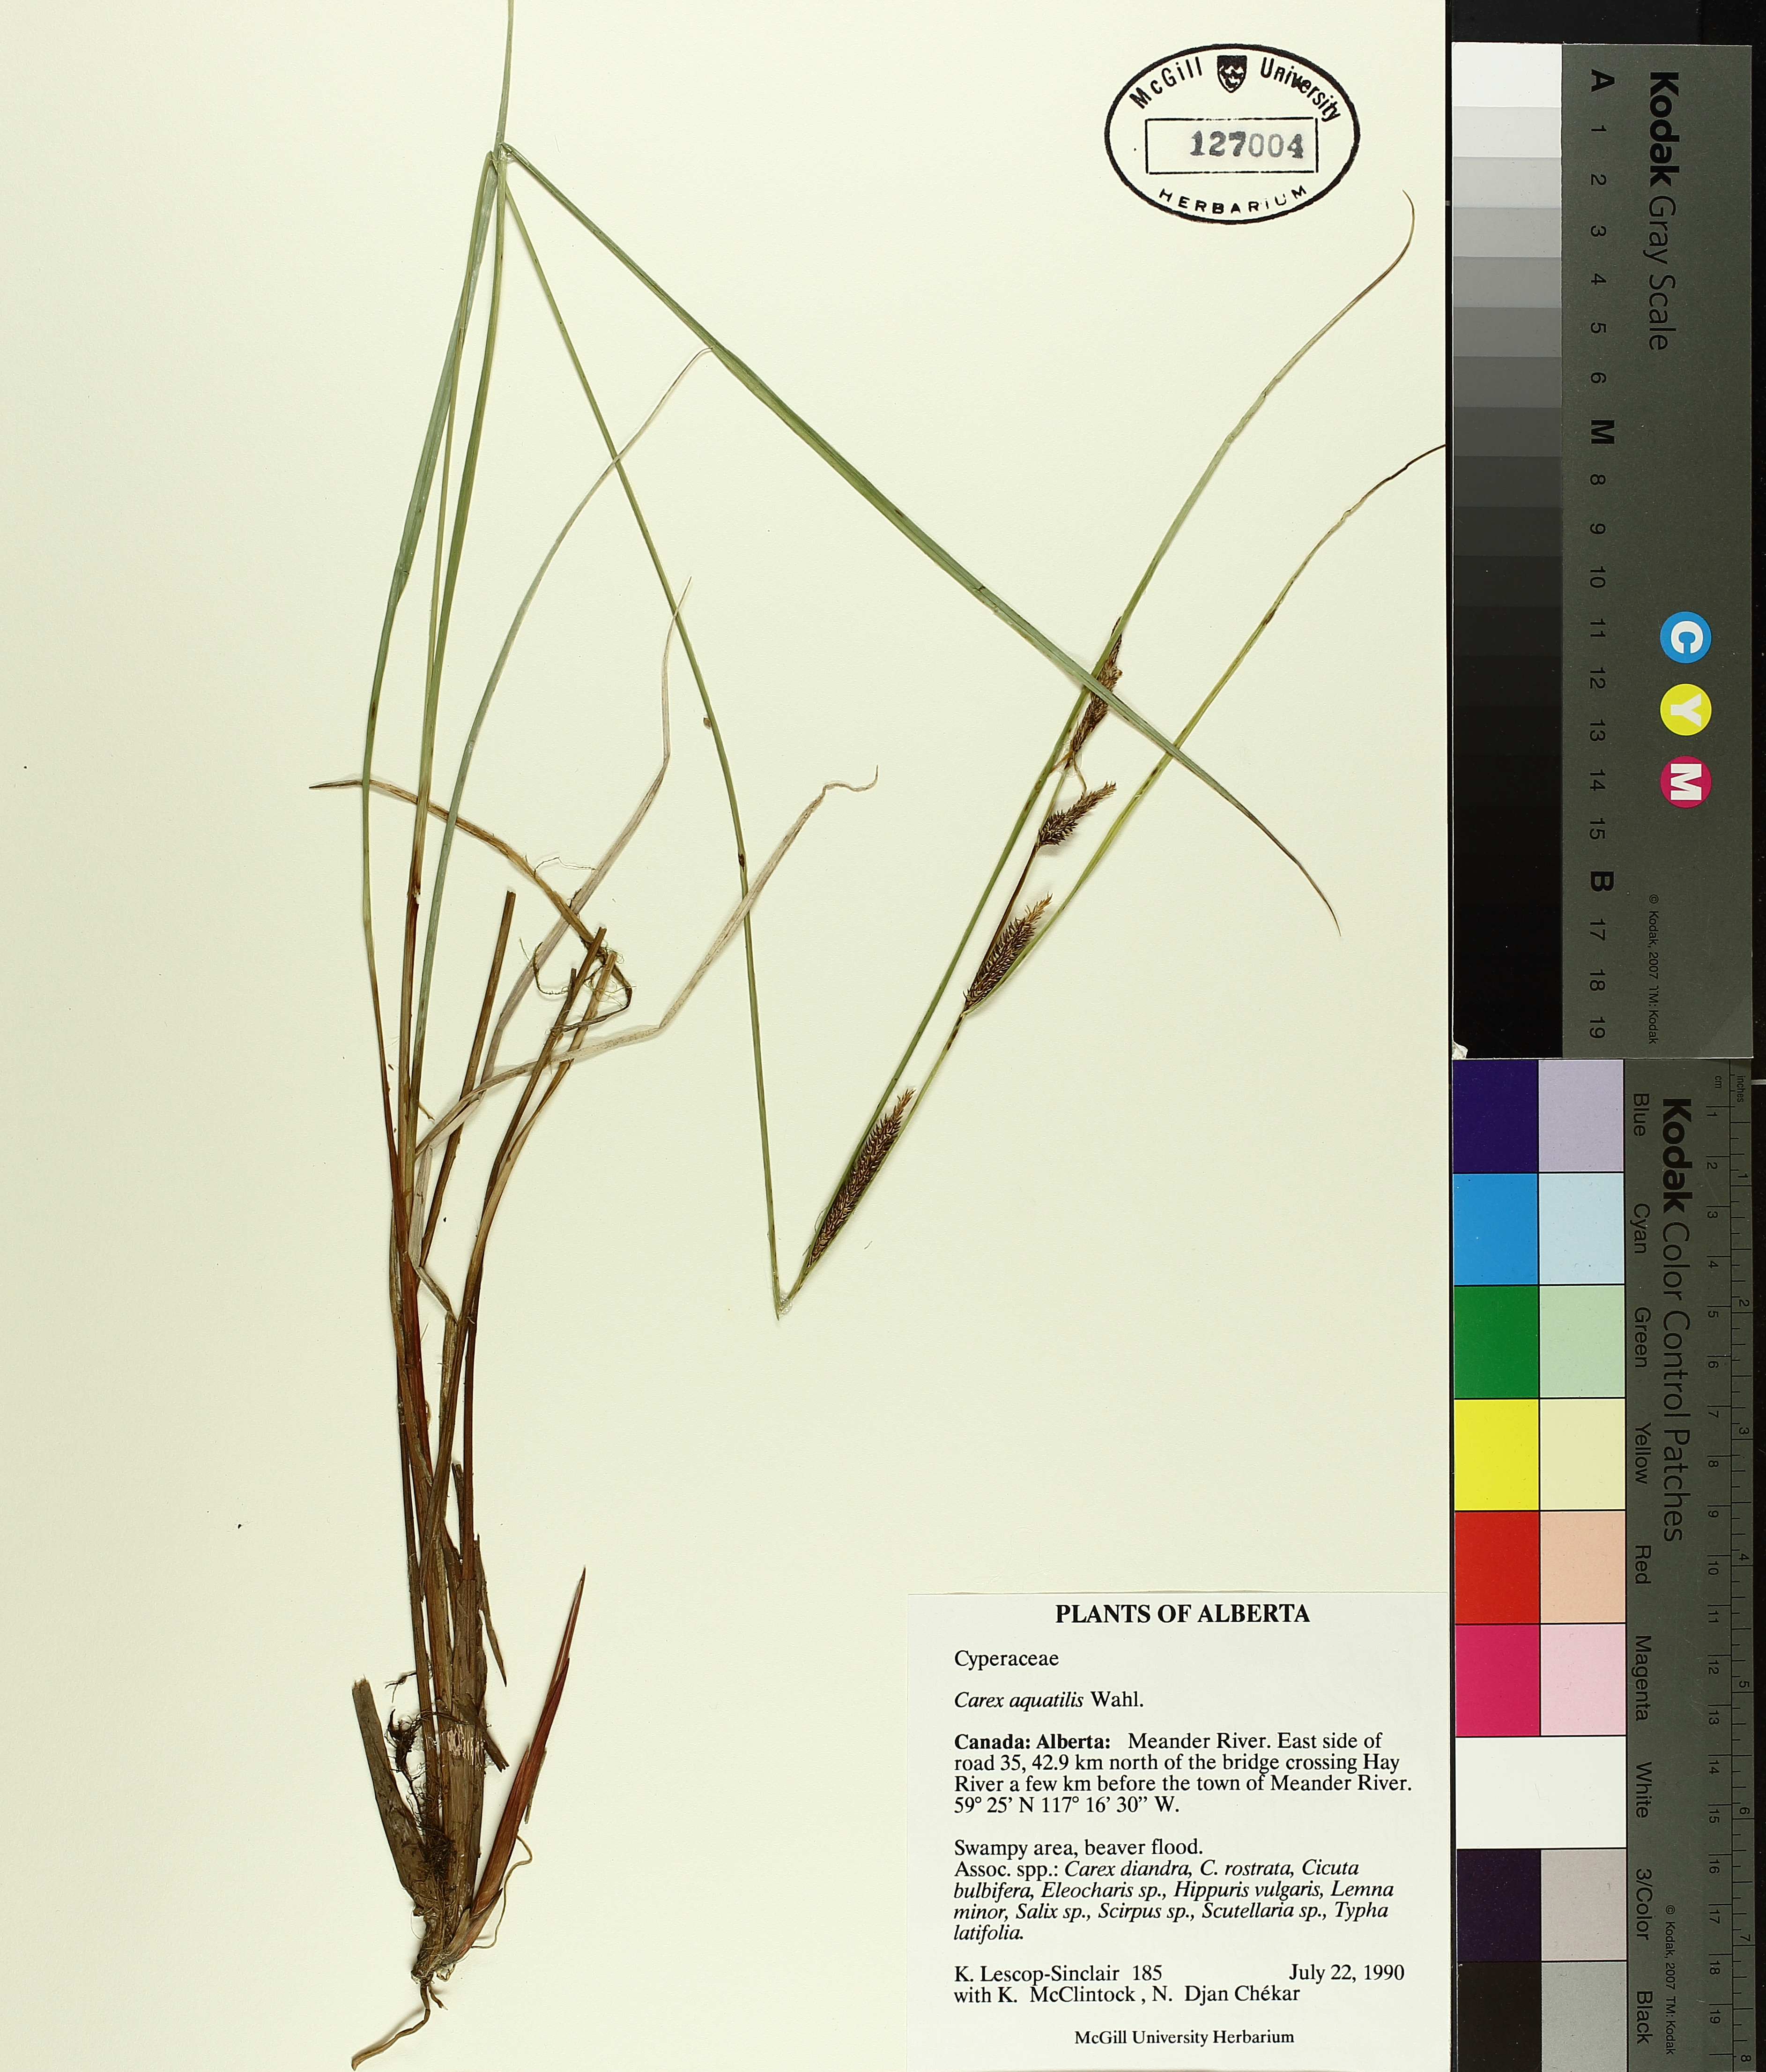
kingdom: Plantae
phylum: Tracheophyta
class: Liliopsida
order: Poales
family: Cyperaceae
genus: Carex
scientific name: Carex aquatilis
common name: Water sedge
